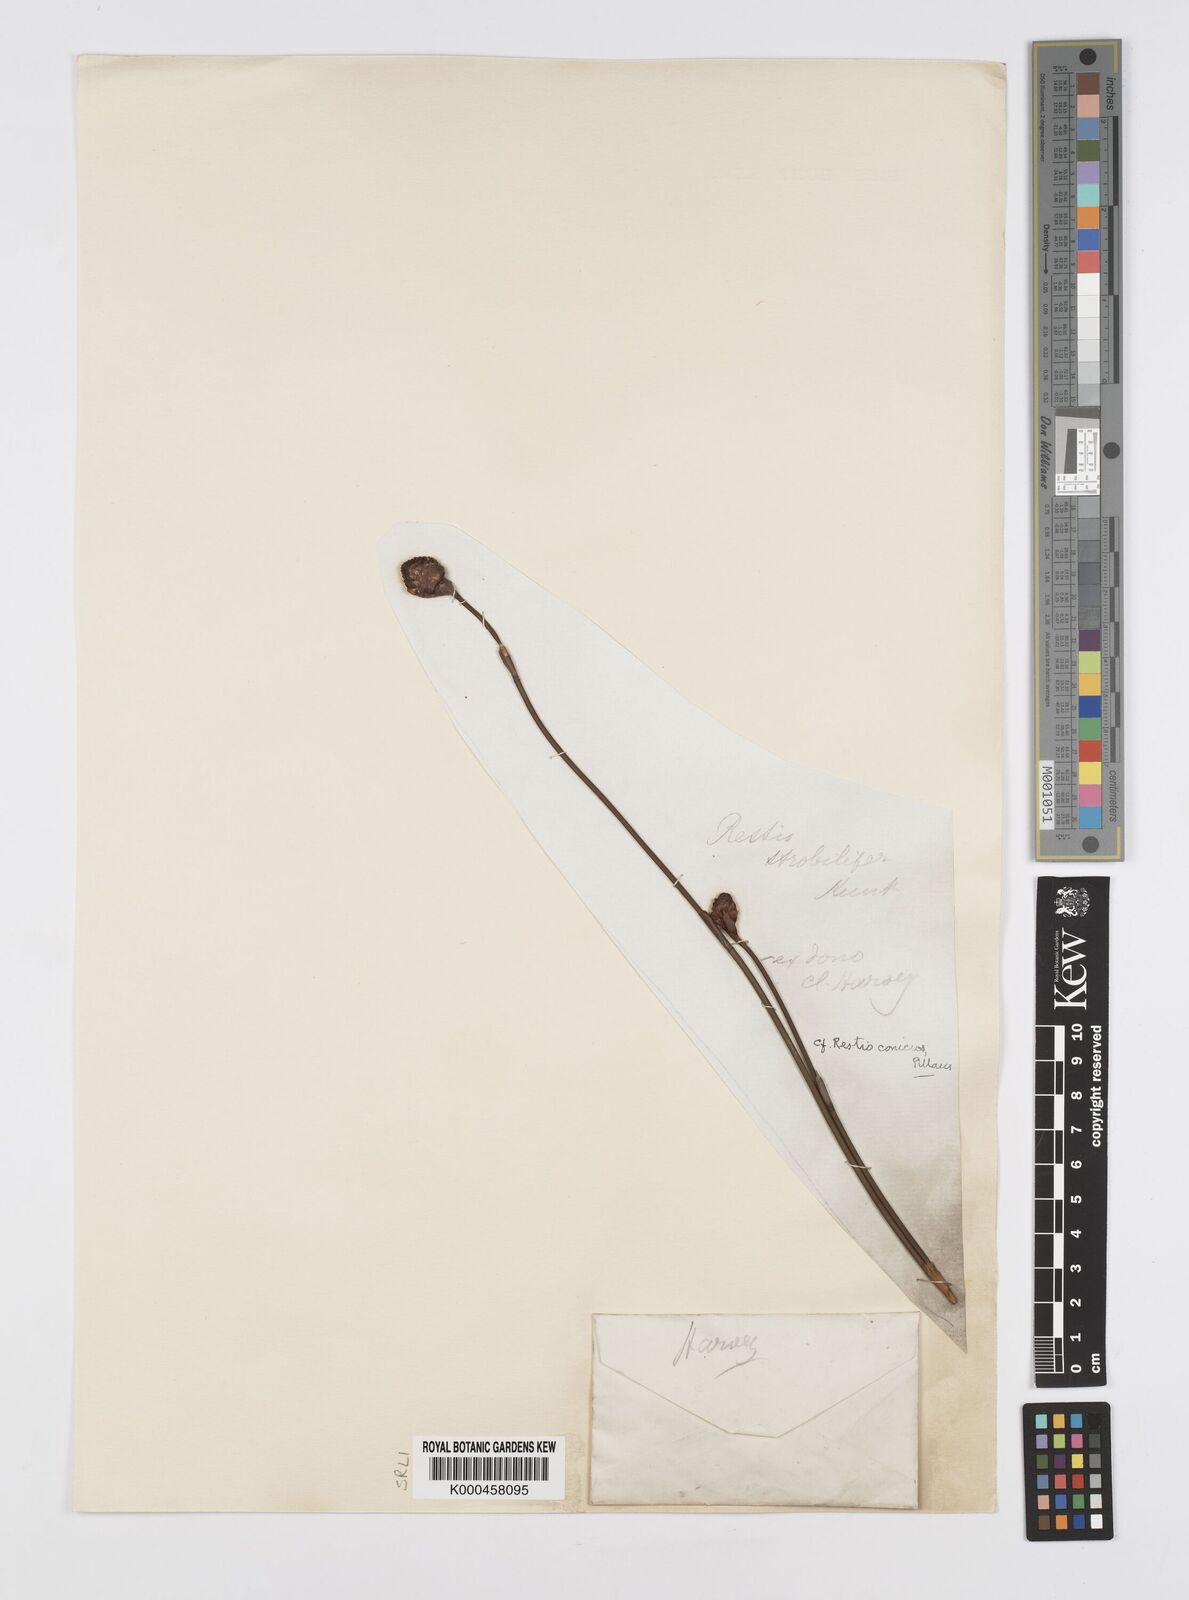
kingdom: Plantae
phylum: Tracheophyta
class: Liliopsida
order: Poales
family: Restionaceae
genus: Restio
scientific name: Restio insignis
